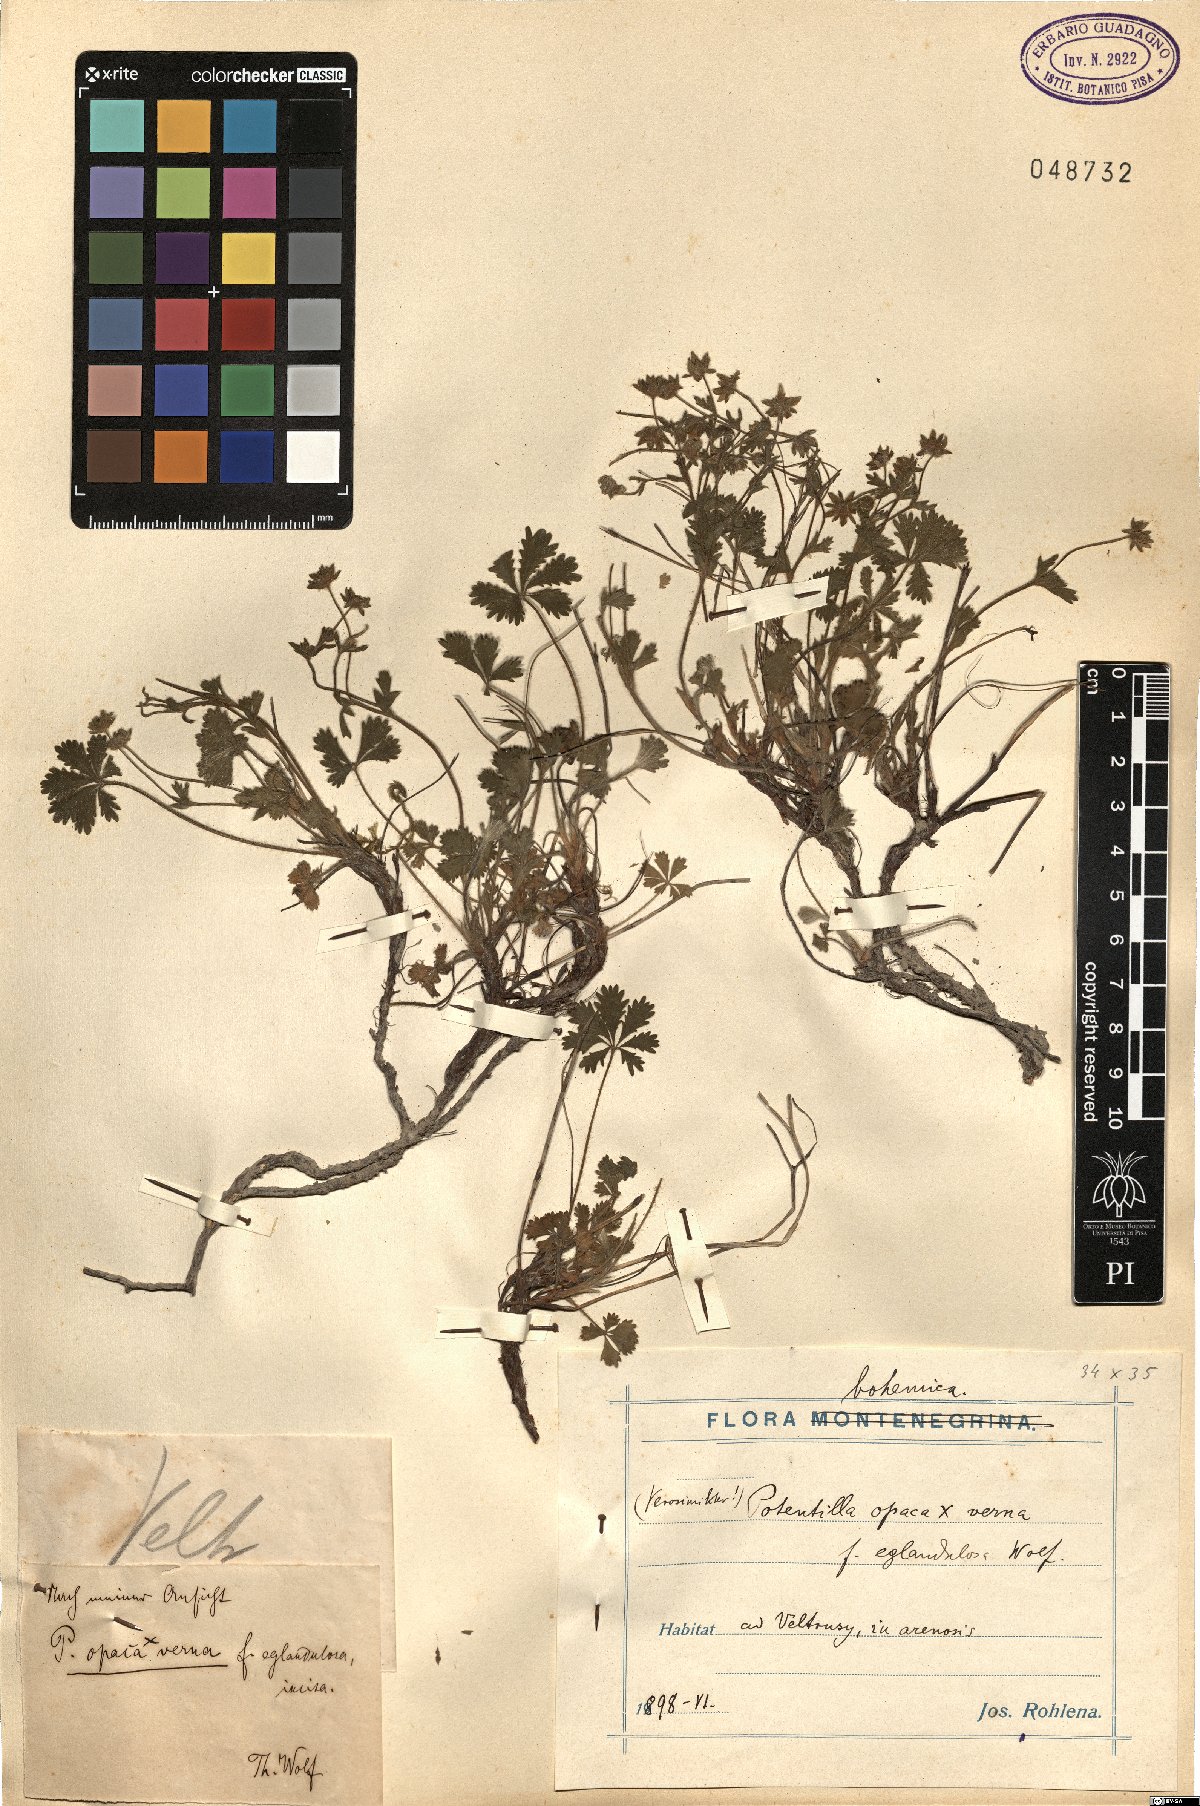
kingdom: Plantae
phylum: Tracheophyta
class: Magnoliopsida
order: Rosales
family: Rosaceae
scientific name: Rosaceae
